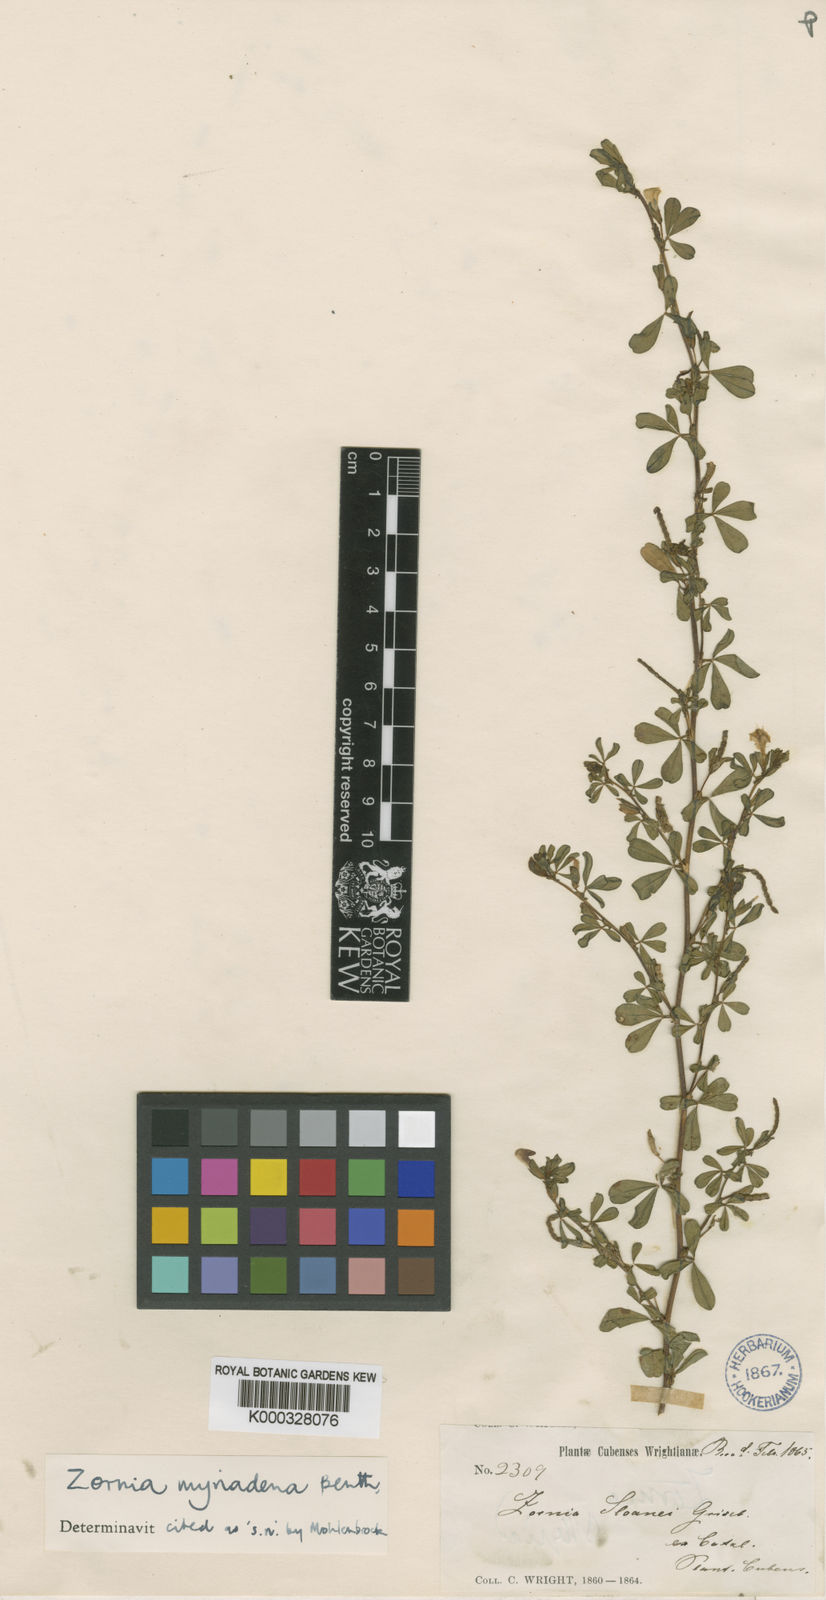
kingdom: Plantae
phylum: Tracheophyta
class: Magnoliopsida
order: Fabales
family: Fabaceae
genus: Zornia
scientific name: Zornia myriadena
